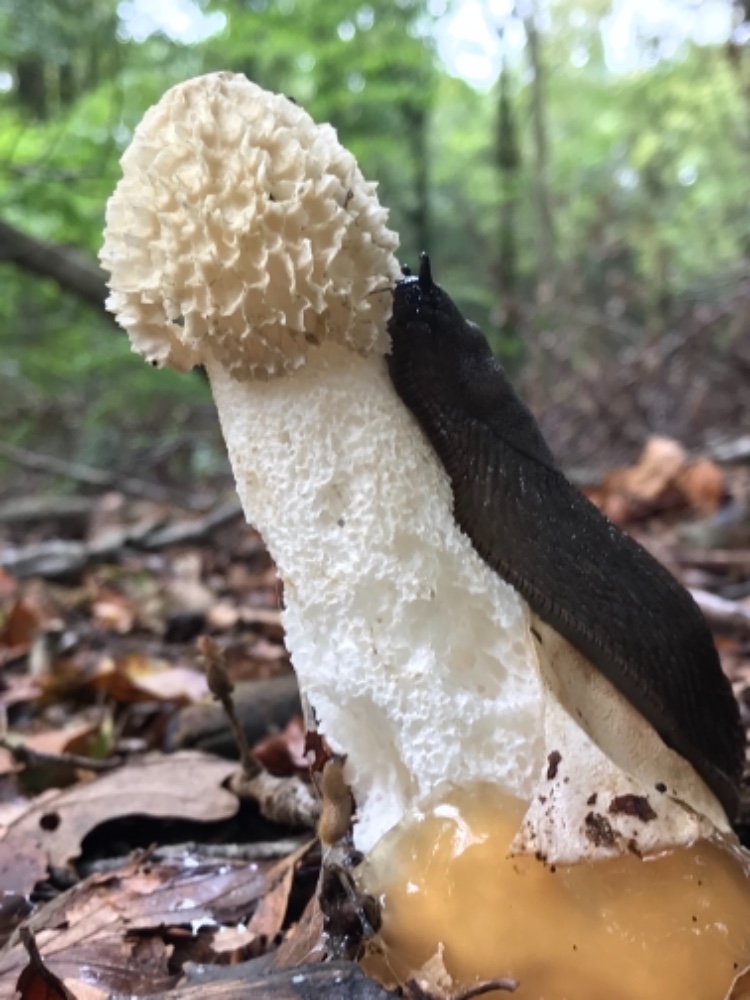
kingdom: Fungi
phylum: Basidiomycota
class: Agaricomycetes
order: Phallales
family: Phallaceae
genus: Phallus
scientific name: Phallus impudicus
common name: almindelig stinksvamp
